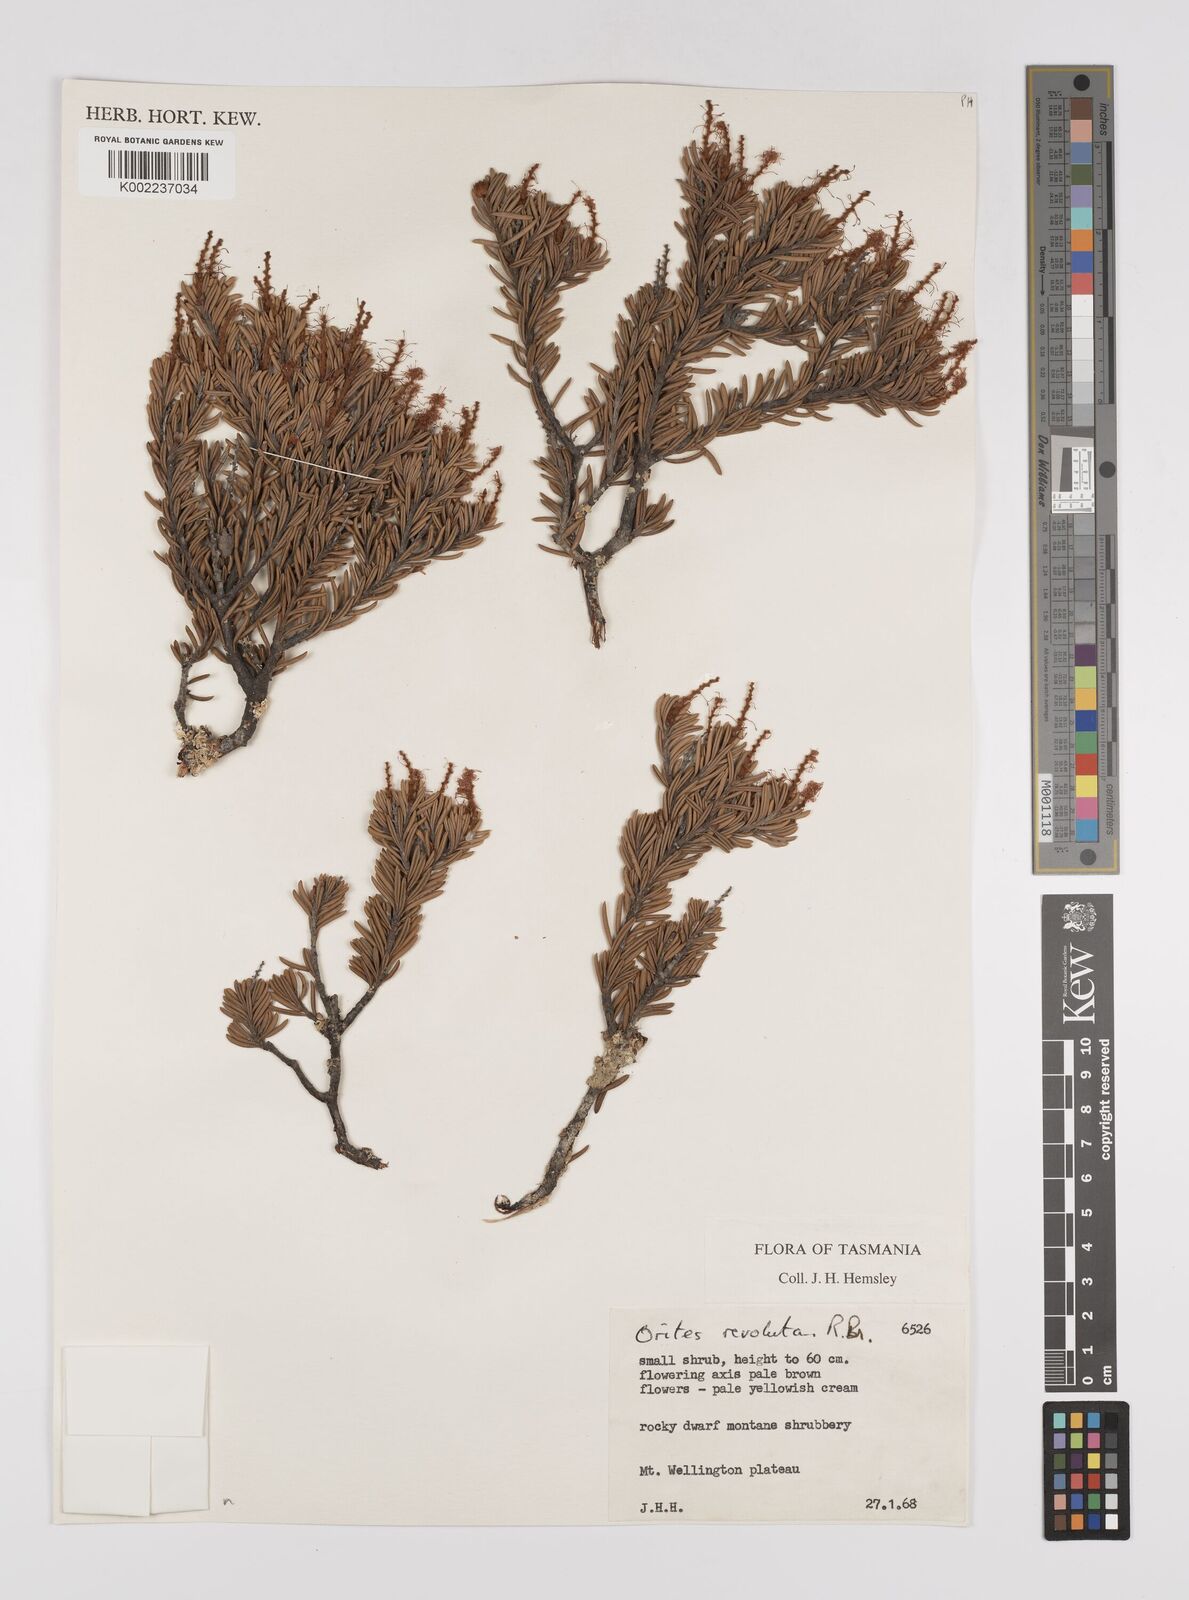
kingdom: Plantae
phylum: Tracheophyta
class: Magnoliopsida
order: Proteales
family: Proteaceae
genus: Orites
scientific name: Orites revolutus
